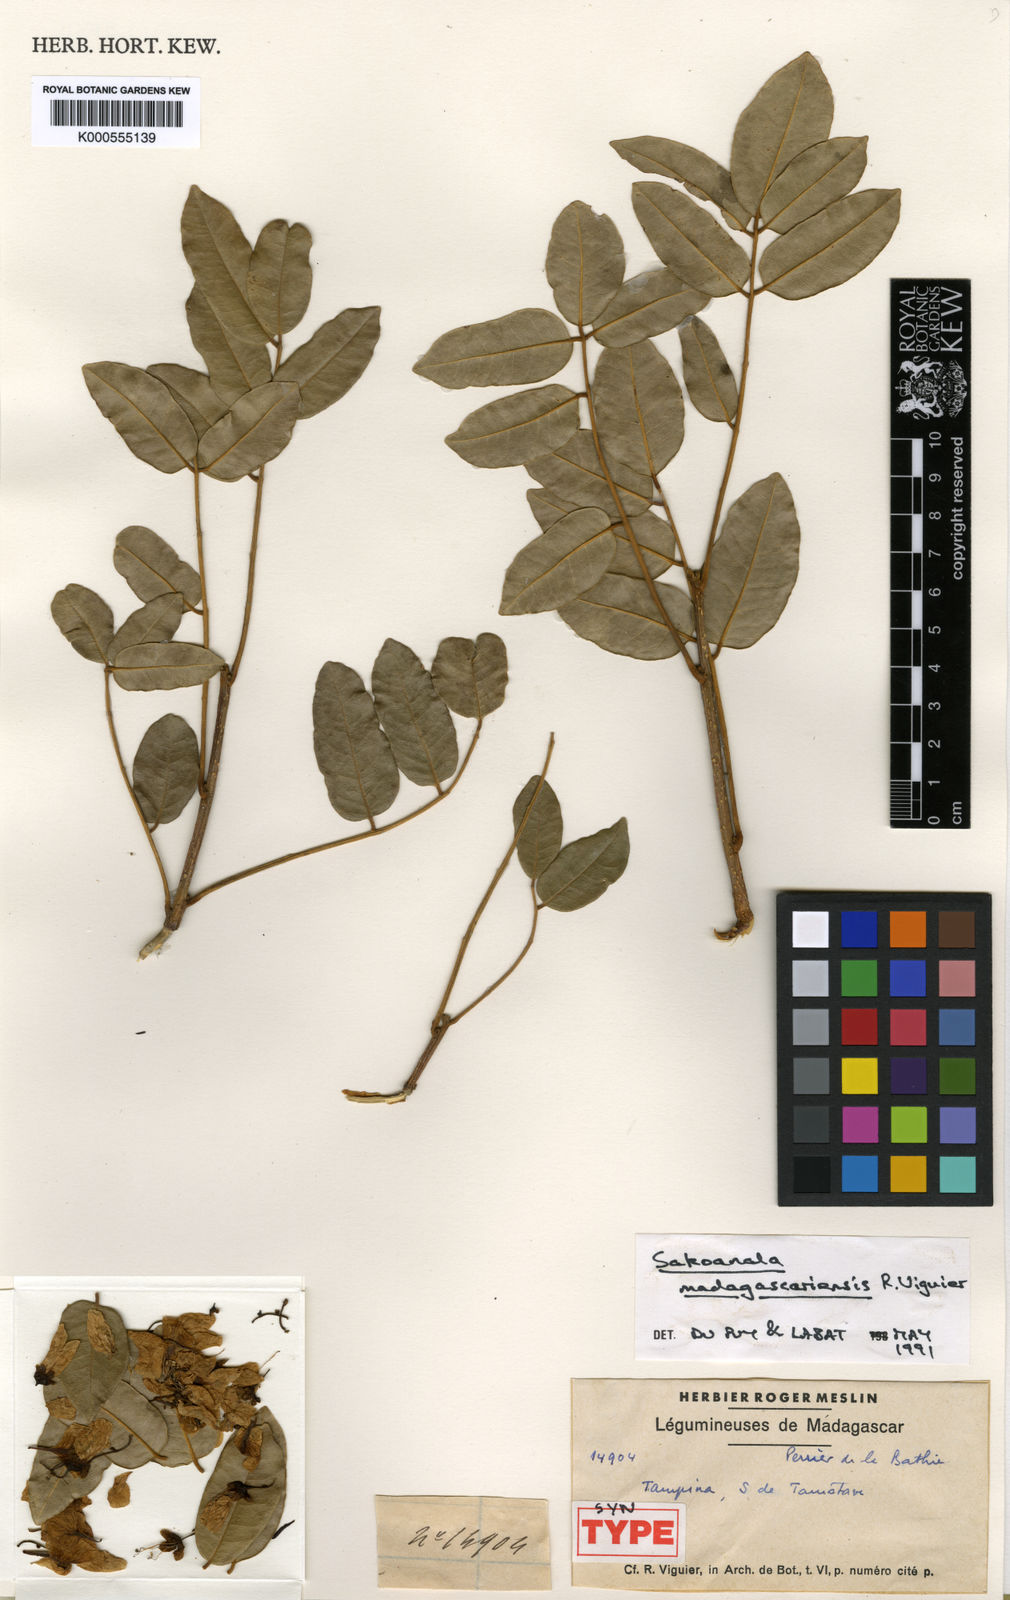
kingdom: Plantae
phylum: Tracheophyta
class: Magnoliopsida
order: Fabales
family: Fabaceae
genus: Sakoanala
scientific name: Sakoanala madagascariensis
